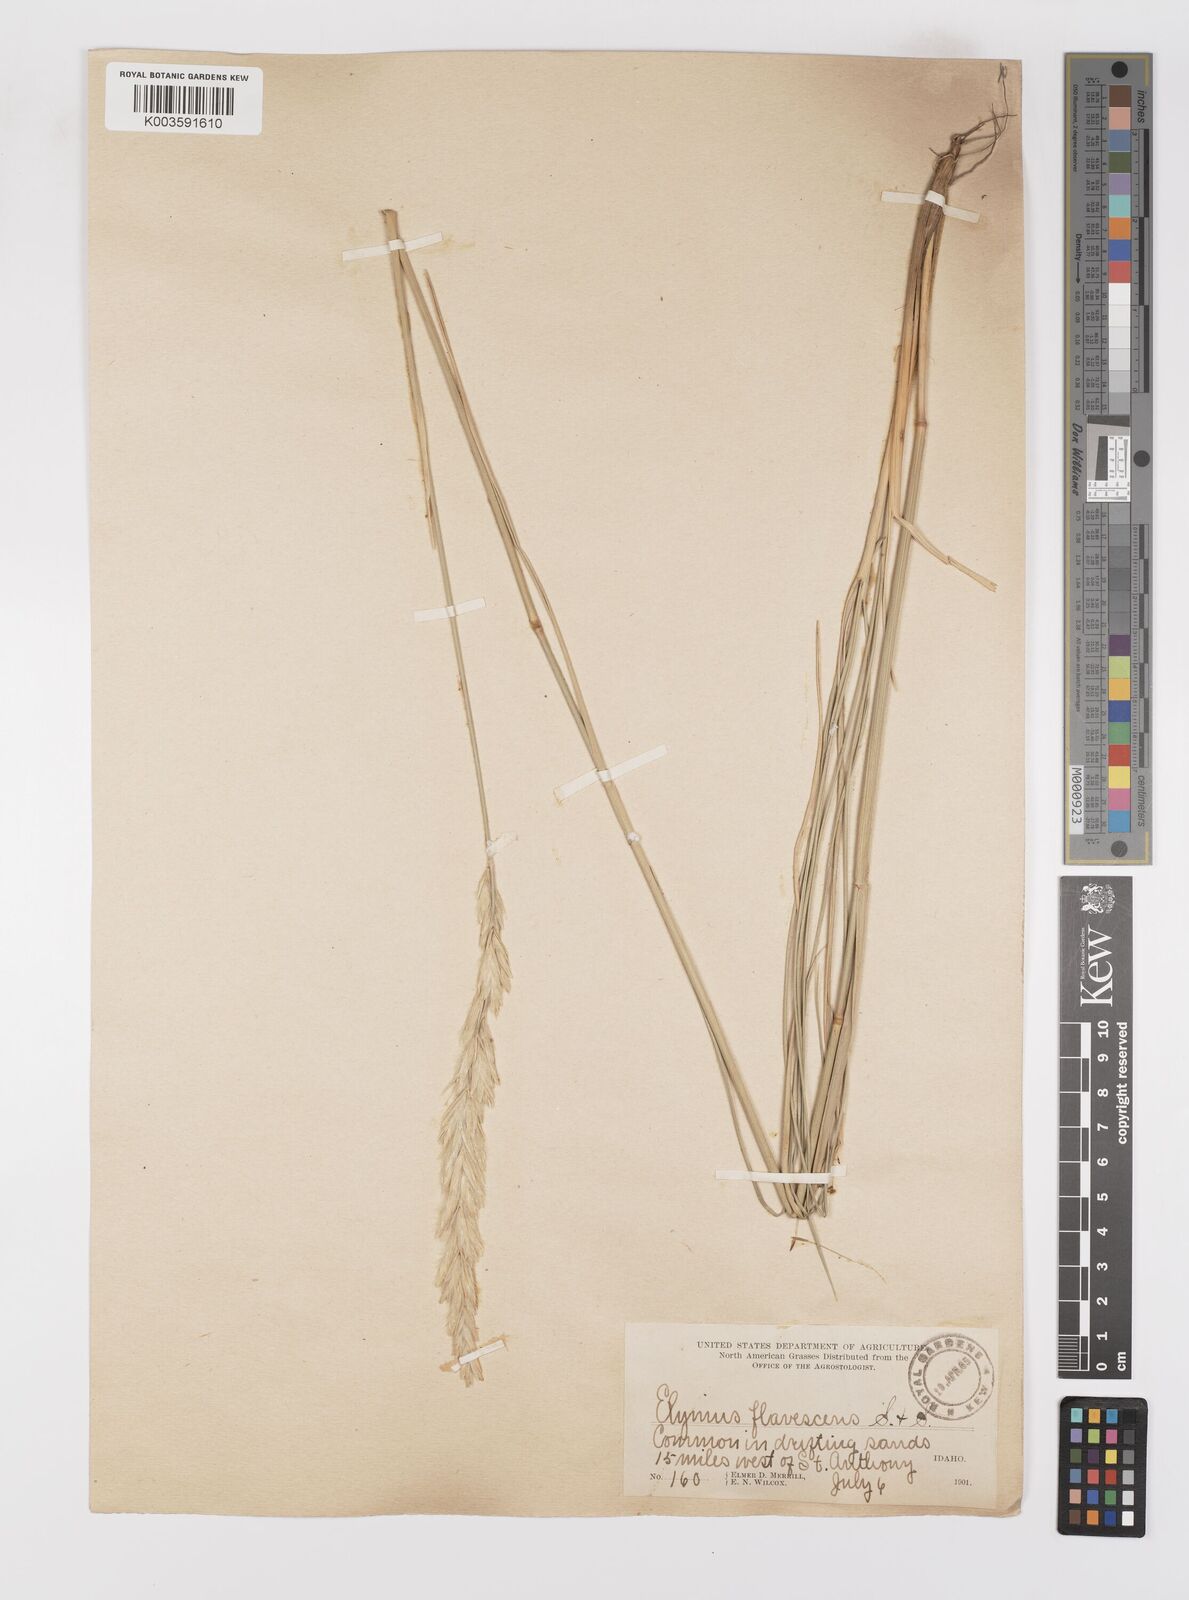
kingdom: Plantae
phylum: Tracheophyta
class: Liliopsida
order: Poales
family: Poaceae
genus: Leymus
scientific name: Leymus flavescens
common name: Yellow wild rye
